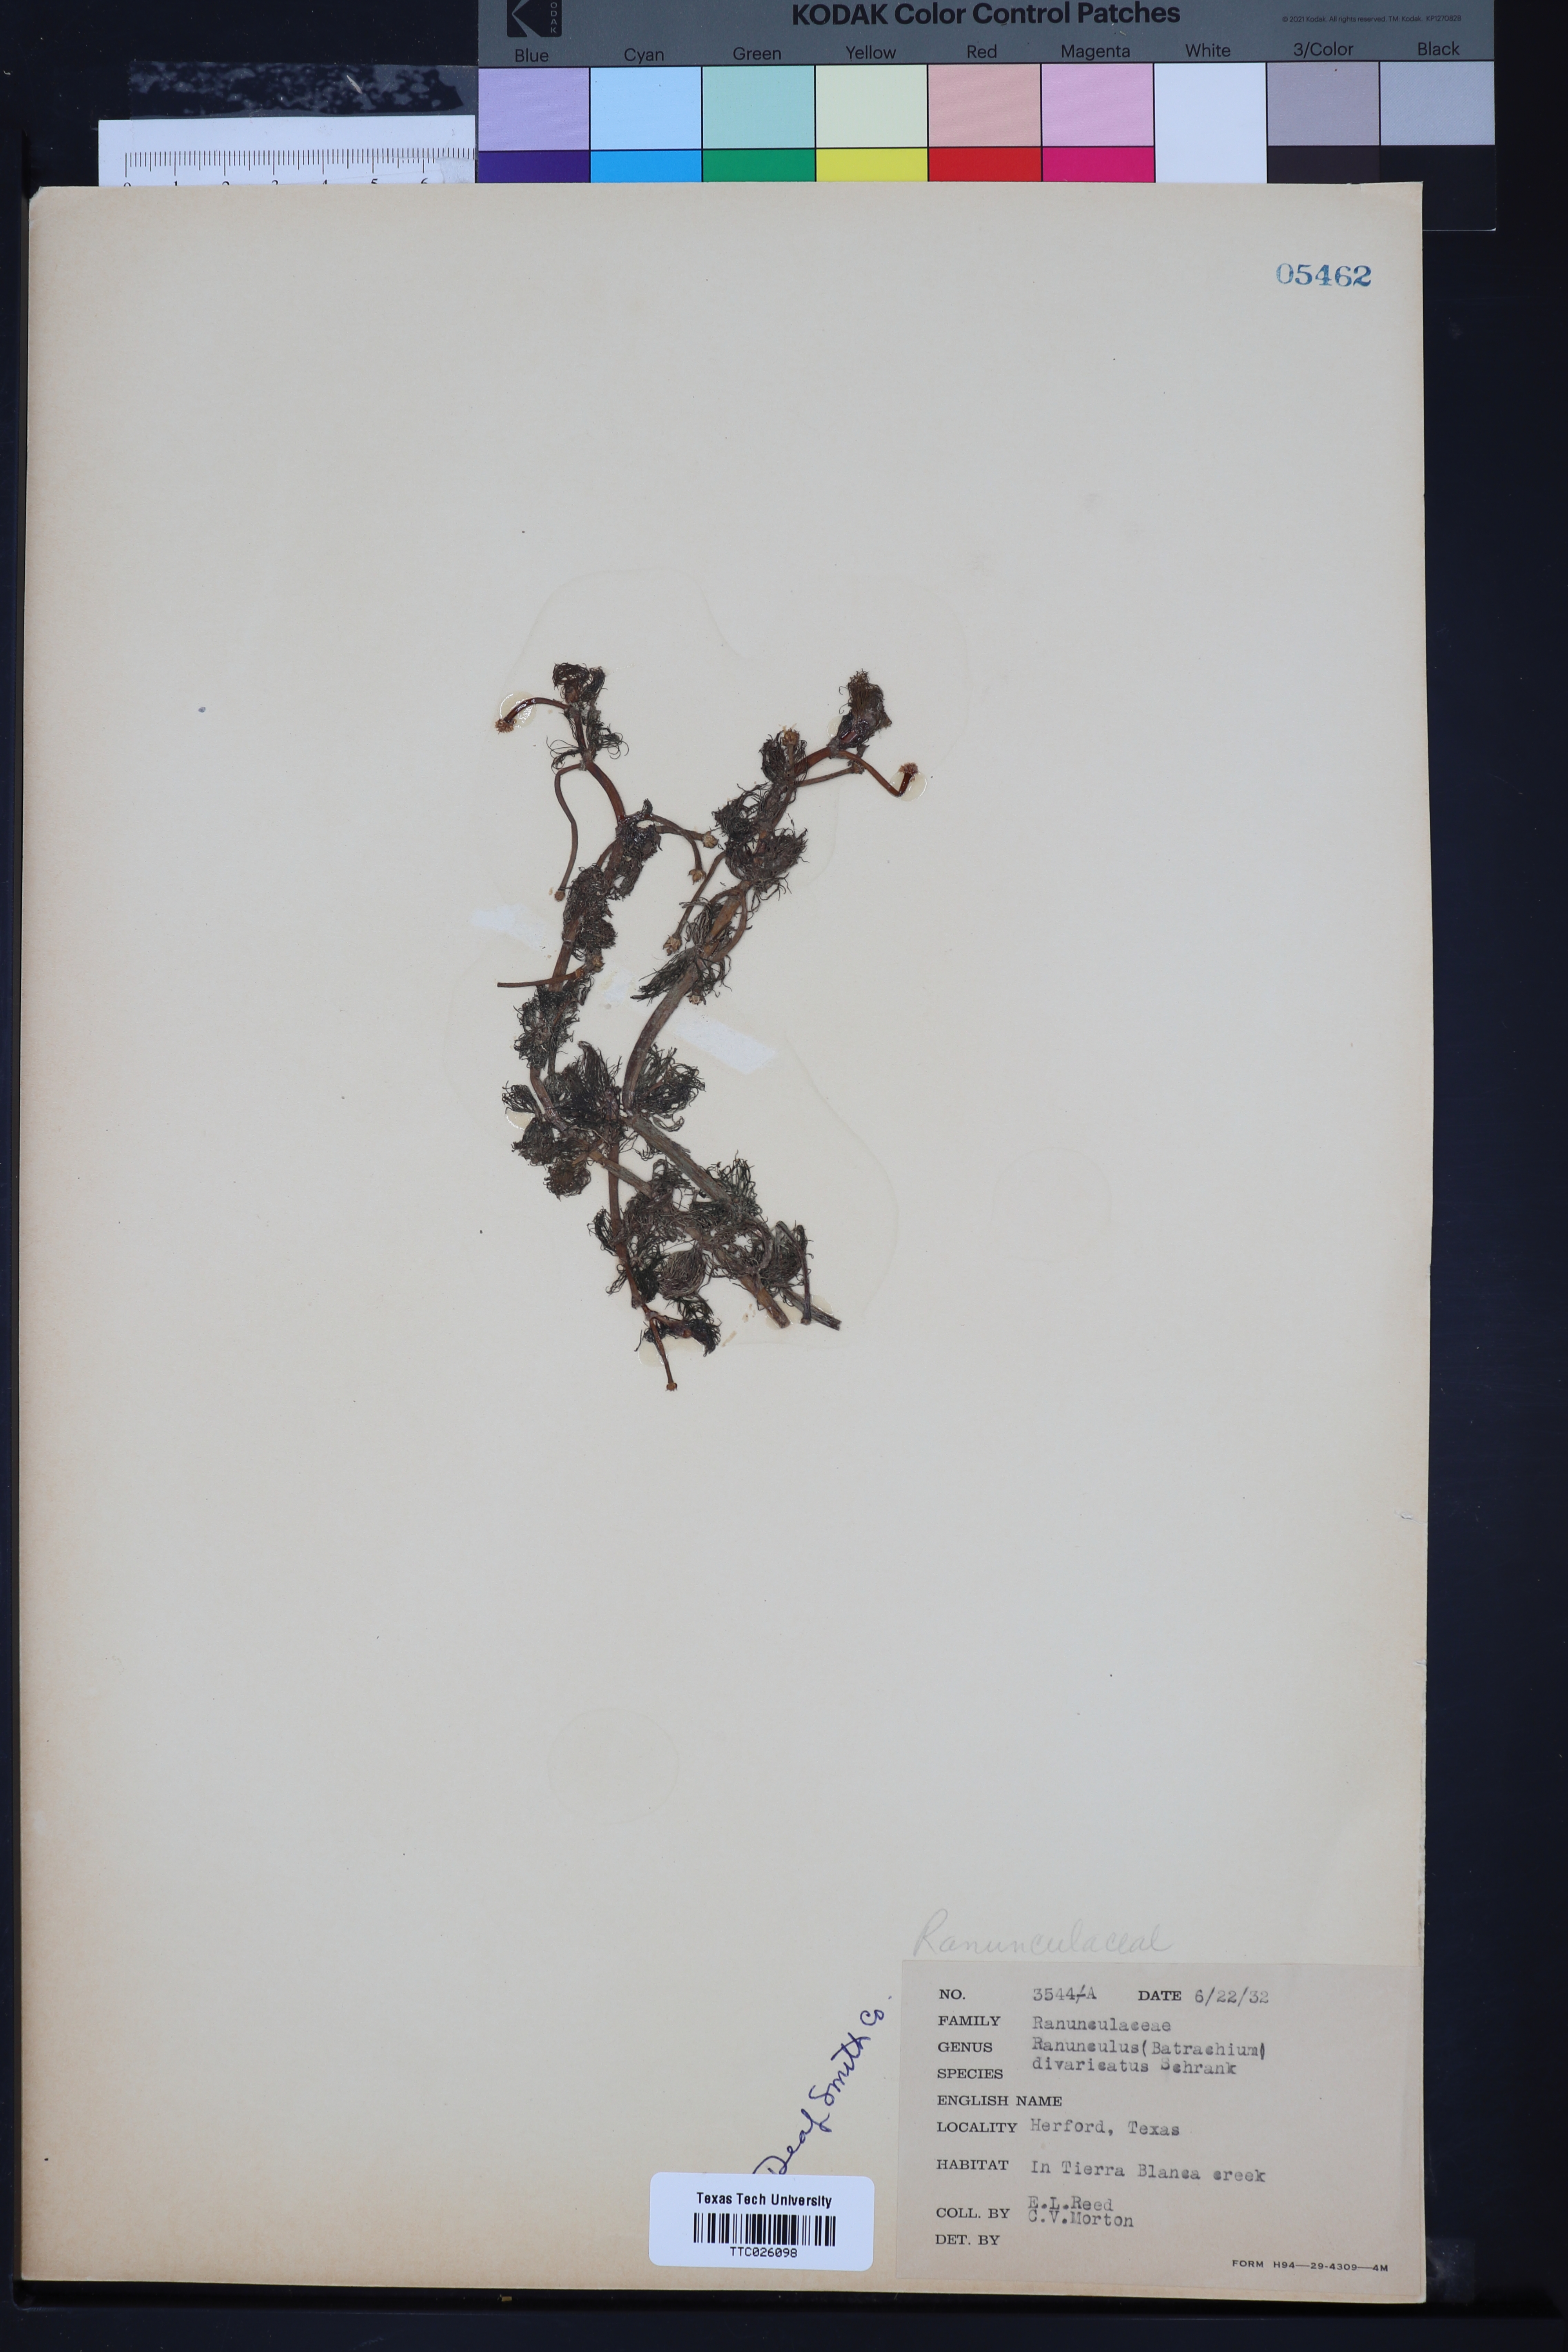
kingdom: Plantae
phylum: Tracheophyta
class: Magnoliopsida
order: Ranunculales
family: Ranunculaceae
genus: Ranunculus
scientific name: Ranunculus aquatilis
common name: Common water-crowfoot
